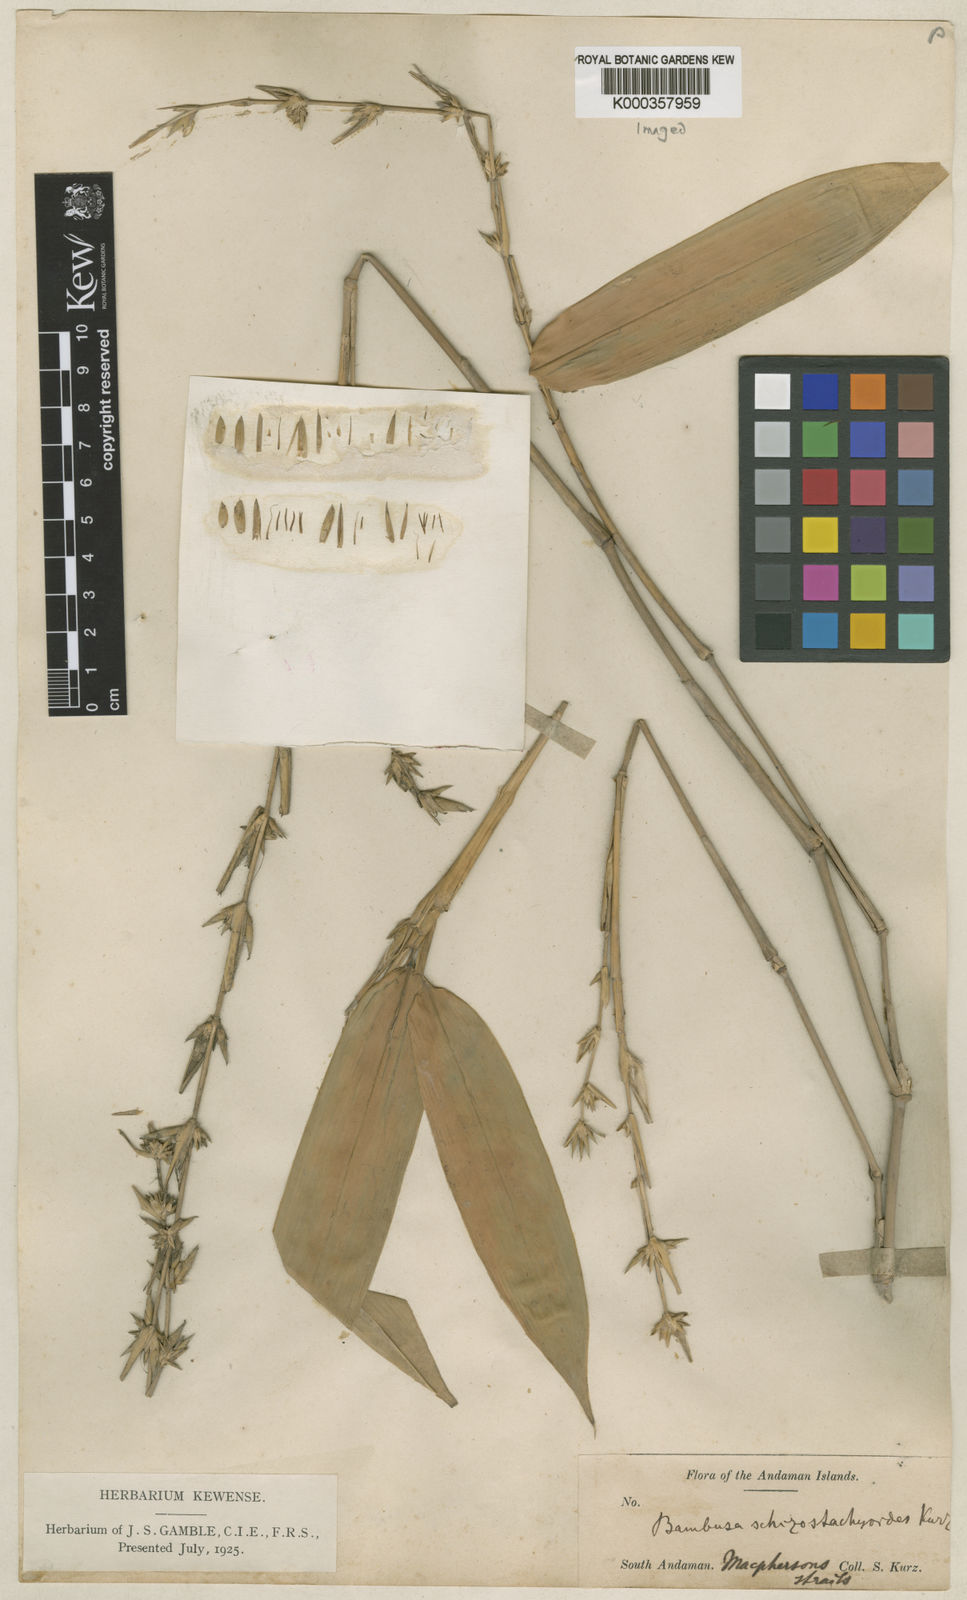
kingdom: Plantae
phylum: Tracheophyta
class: Liliopsida
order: Poales
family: Poaceae
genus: Pseudobambusa
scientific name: Pseudobambusa schizostachyoides
